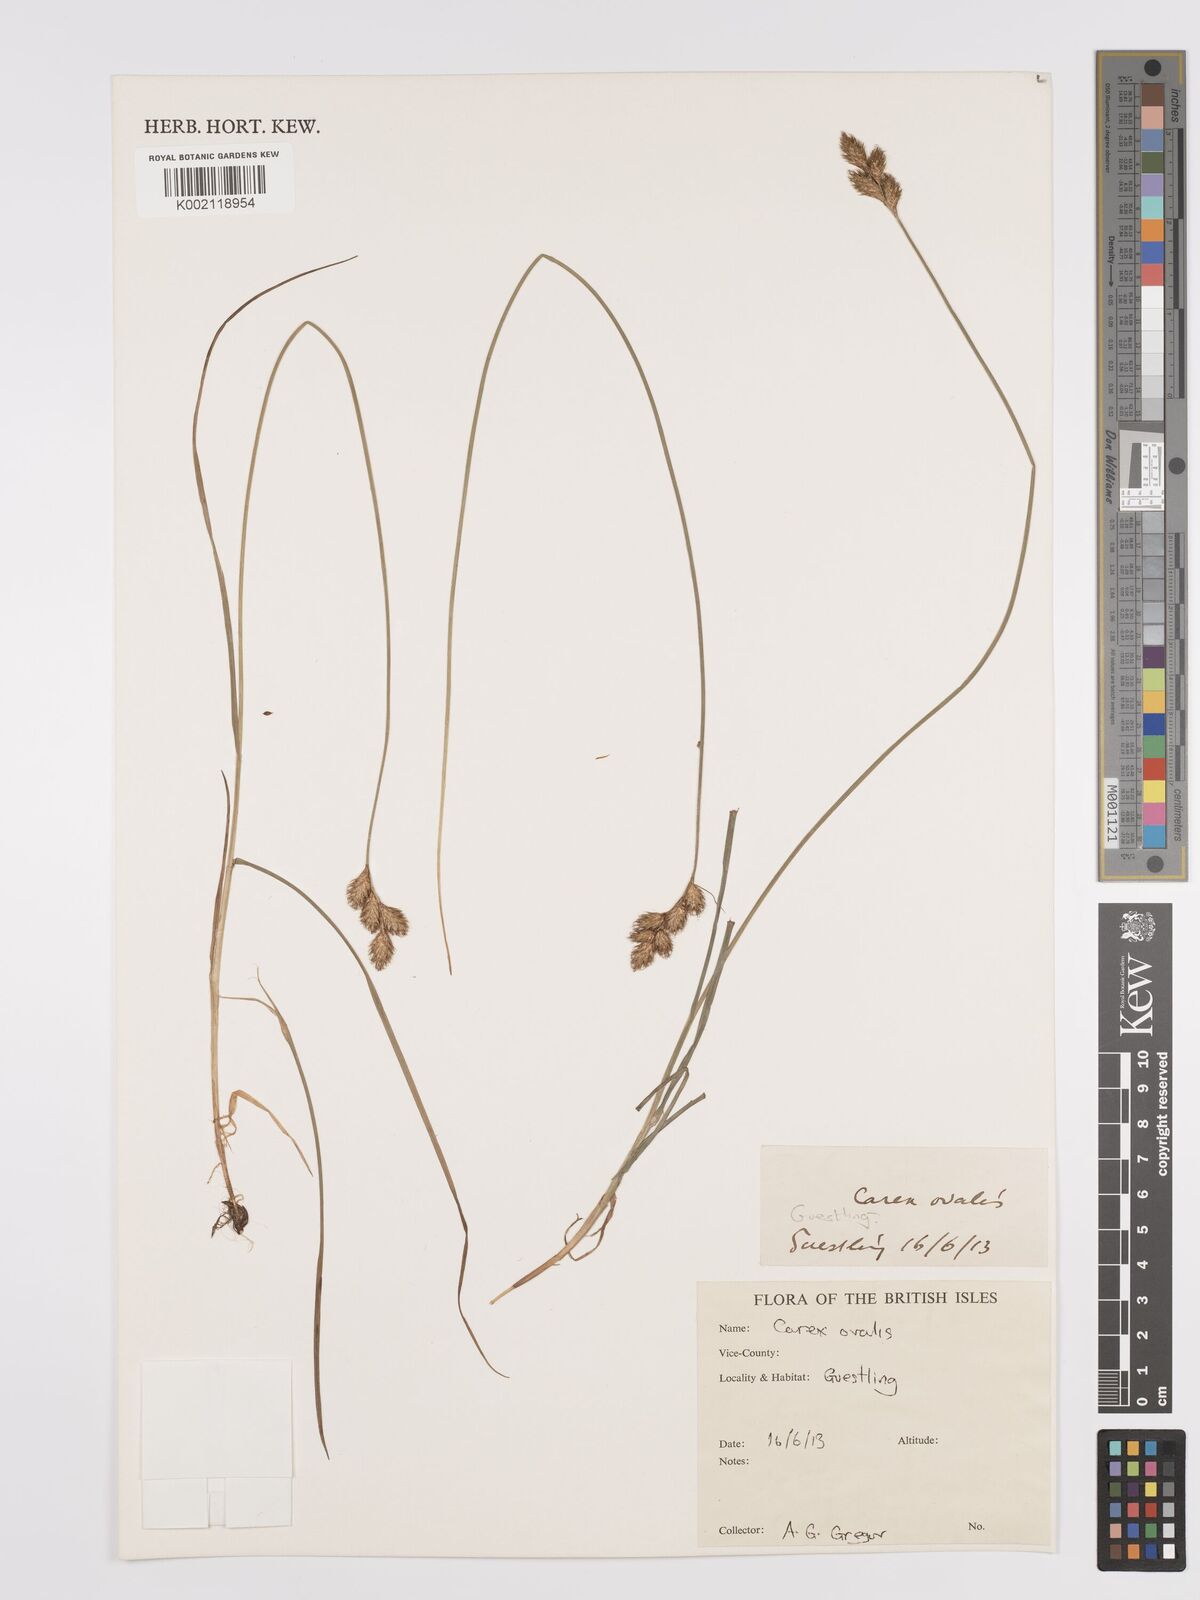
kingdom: Plantae
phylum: Tracheophyta
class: Liliopsida
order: Poales
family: Cyperaceae
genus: Carex
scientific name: Carex leporina
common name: Oval sedge
